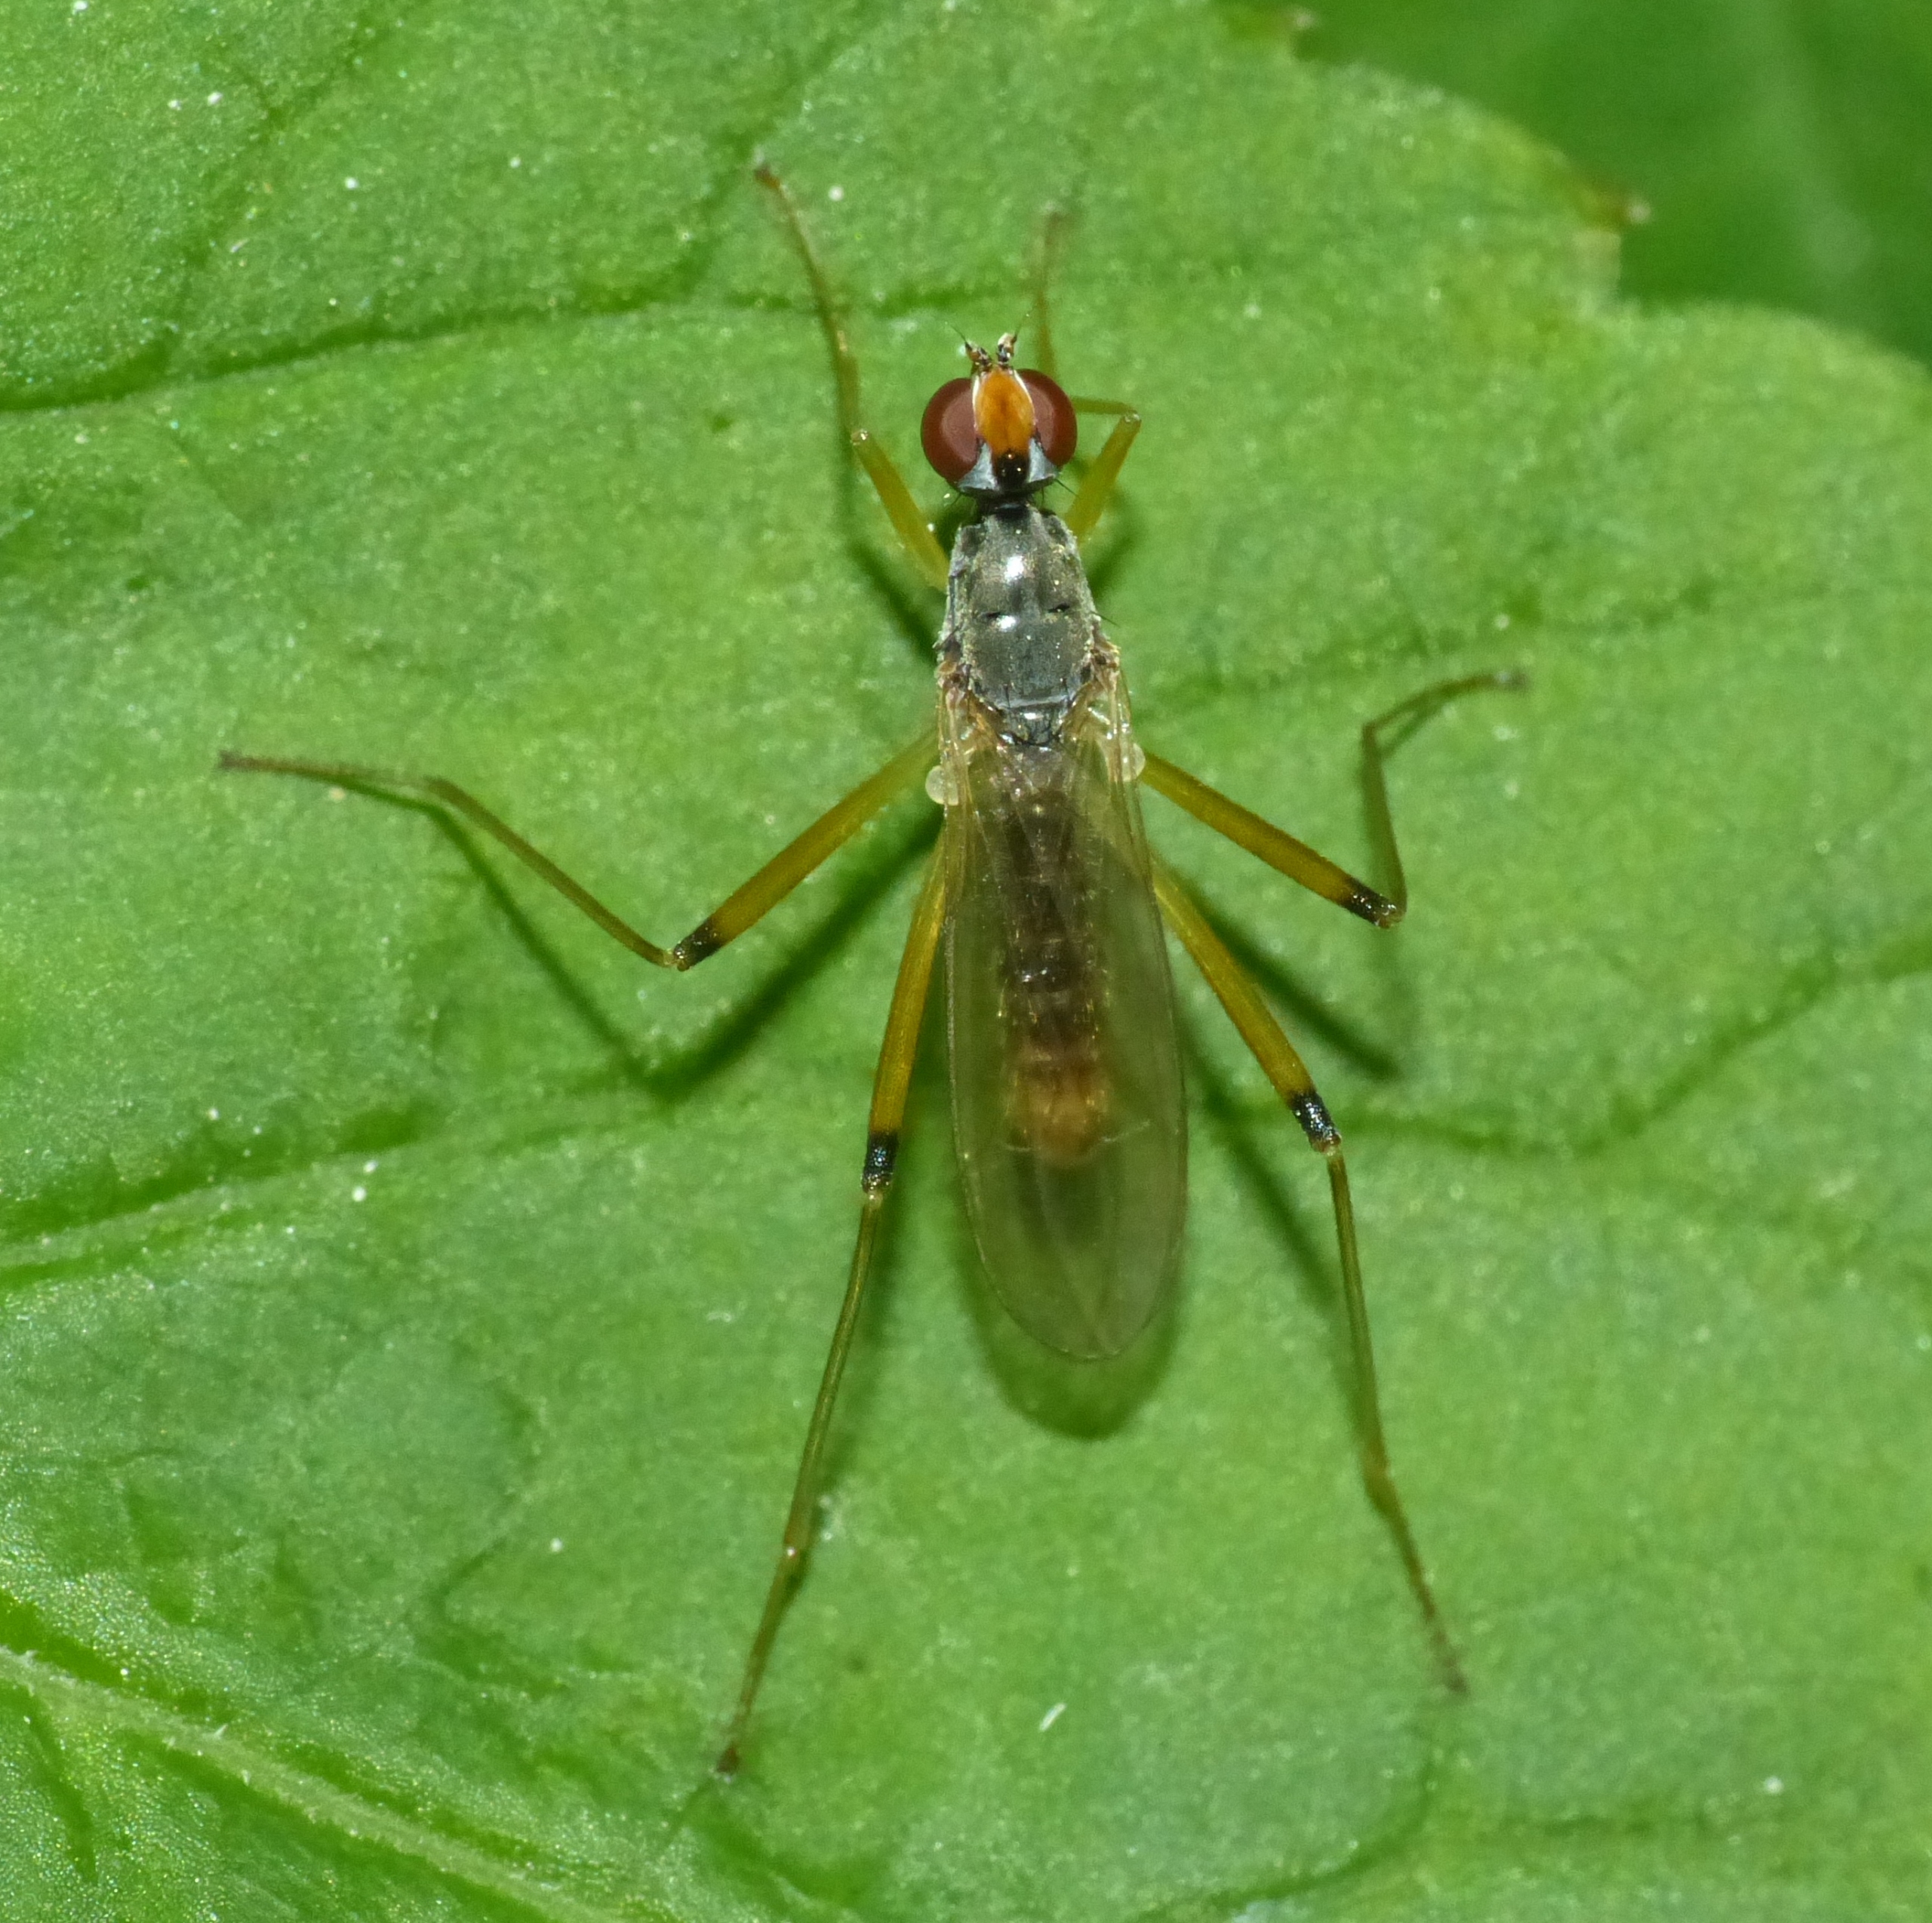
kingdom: Animalia
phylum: Arthropoda
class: Insecta
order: Diptera
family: Micropezidae
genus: Compsobata
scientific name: Compsobata cibaria
